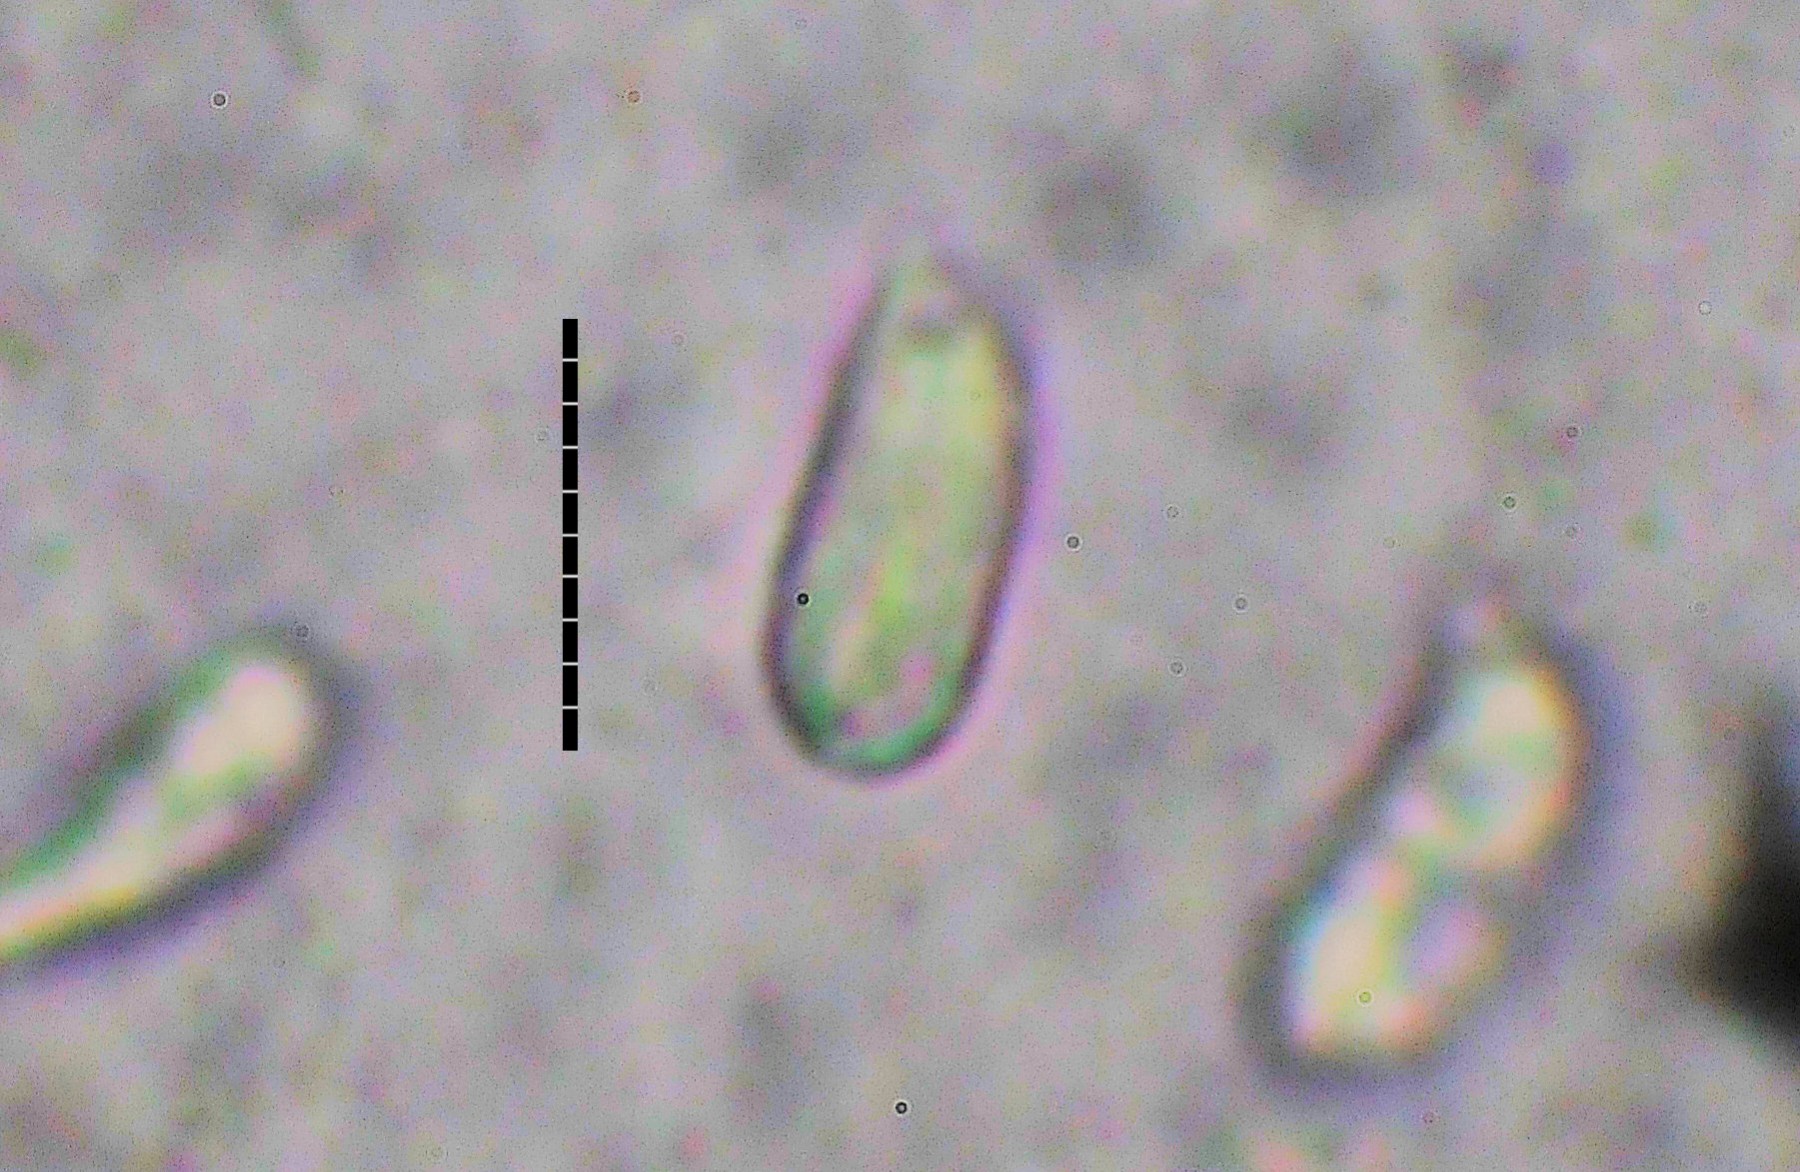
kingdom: Fungi
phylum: Basidiomycota
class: Agaricomycetes
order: Agaricales
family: Hygrophoraceae
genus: Hygrocybe
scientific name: Hygrocybe conicoides
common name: klit-vokshat
